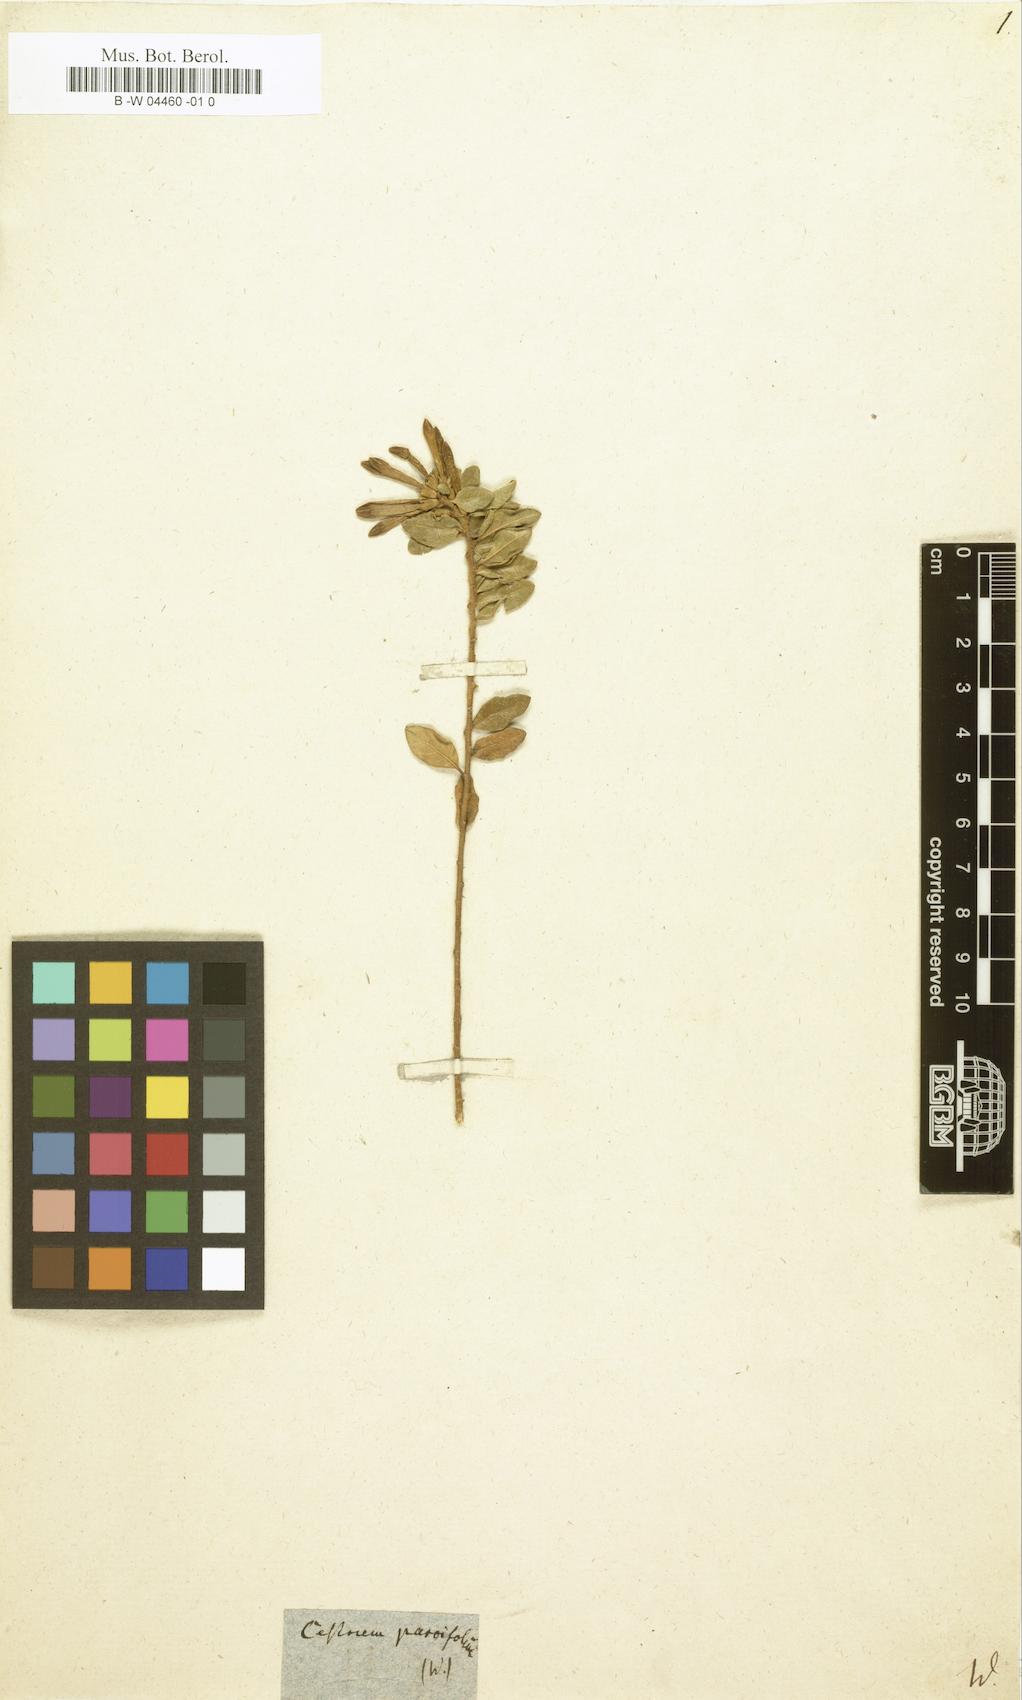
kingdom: Plantae
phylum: Tracheophyta
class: Magnoliopsida
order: Solanales
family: Solanaceae
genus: Cestrum
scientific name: Cestrum buxifolium
